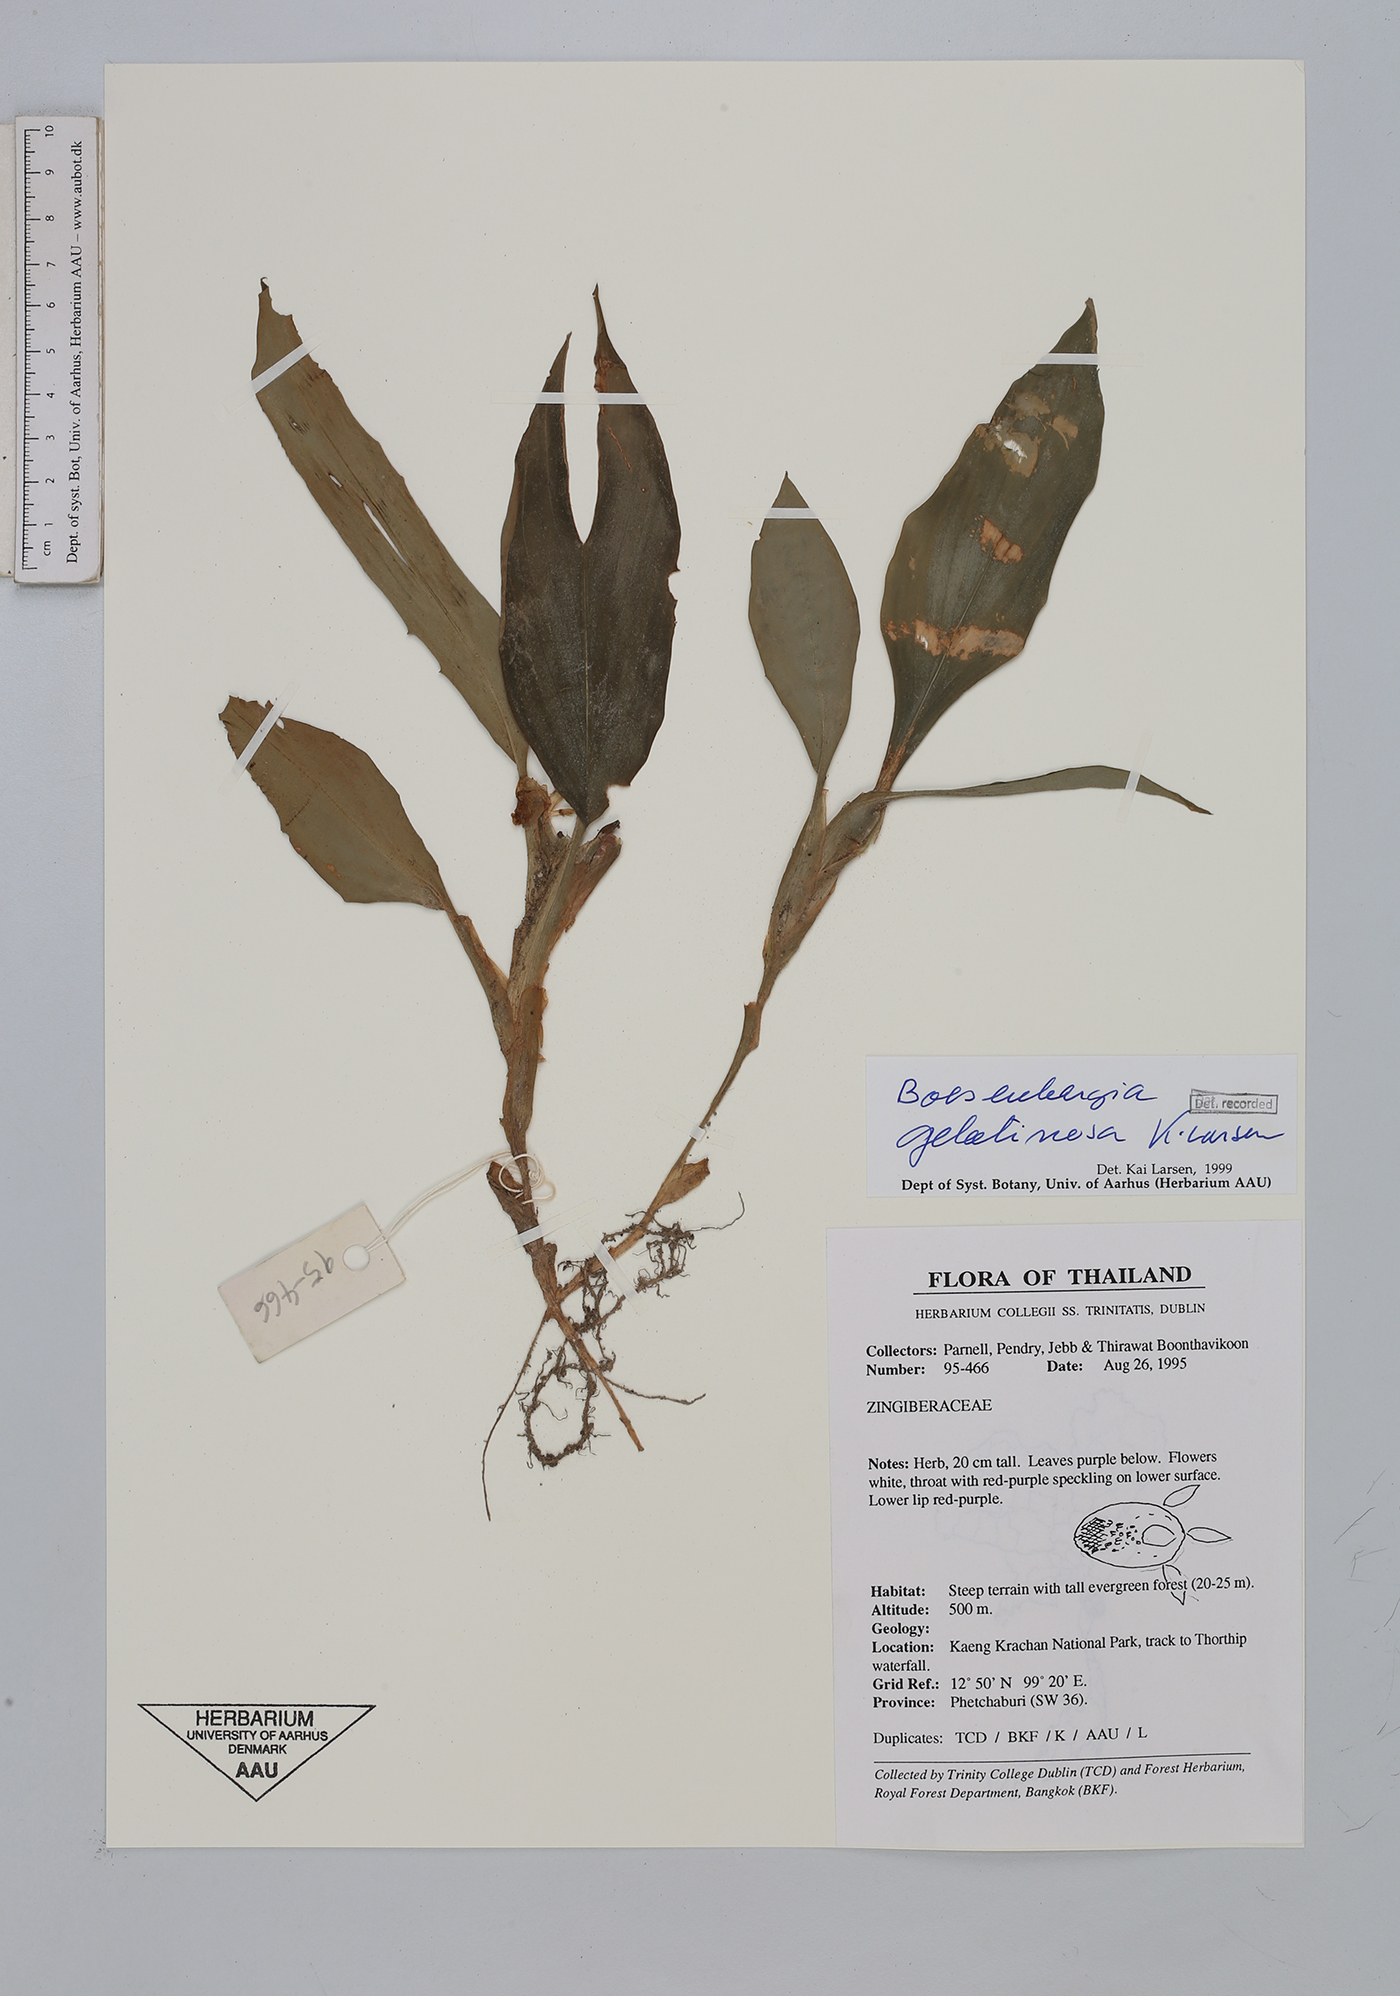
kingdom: Plantae
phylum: Tracheophyta
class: Liliopsida
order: Zingiberales
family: Zingiberaceae
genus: Boesenbergia
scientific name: Boesenbergia parvula
